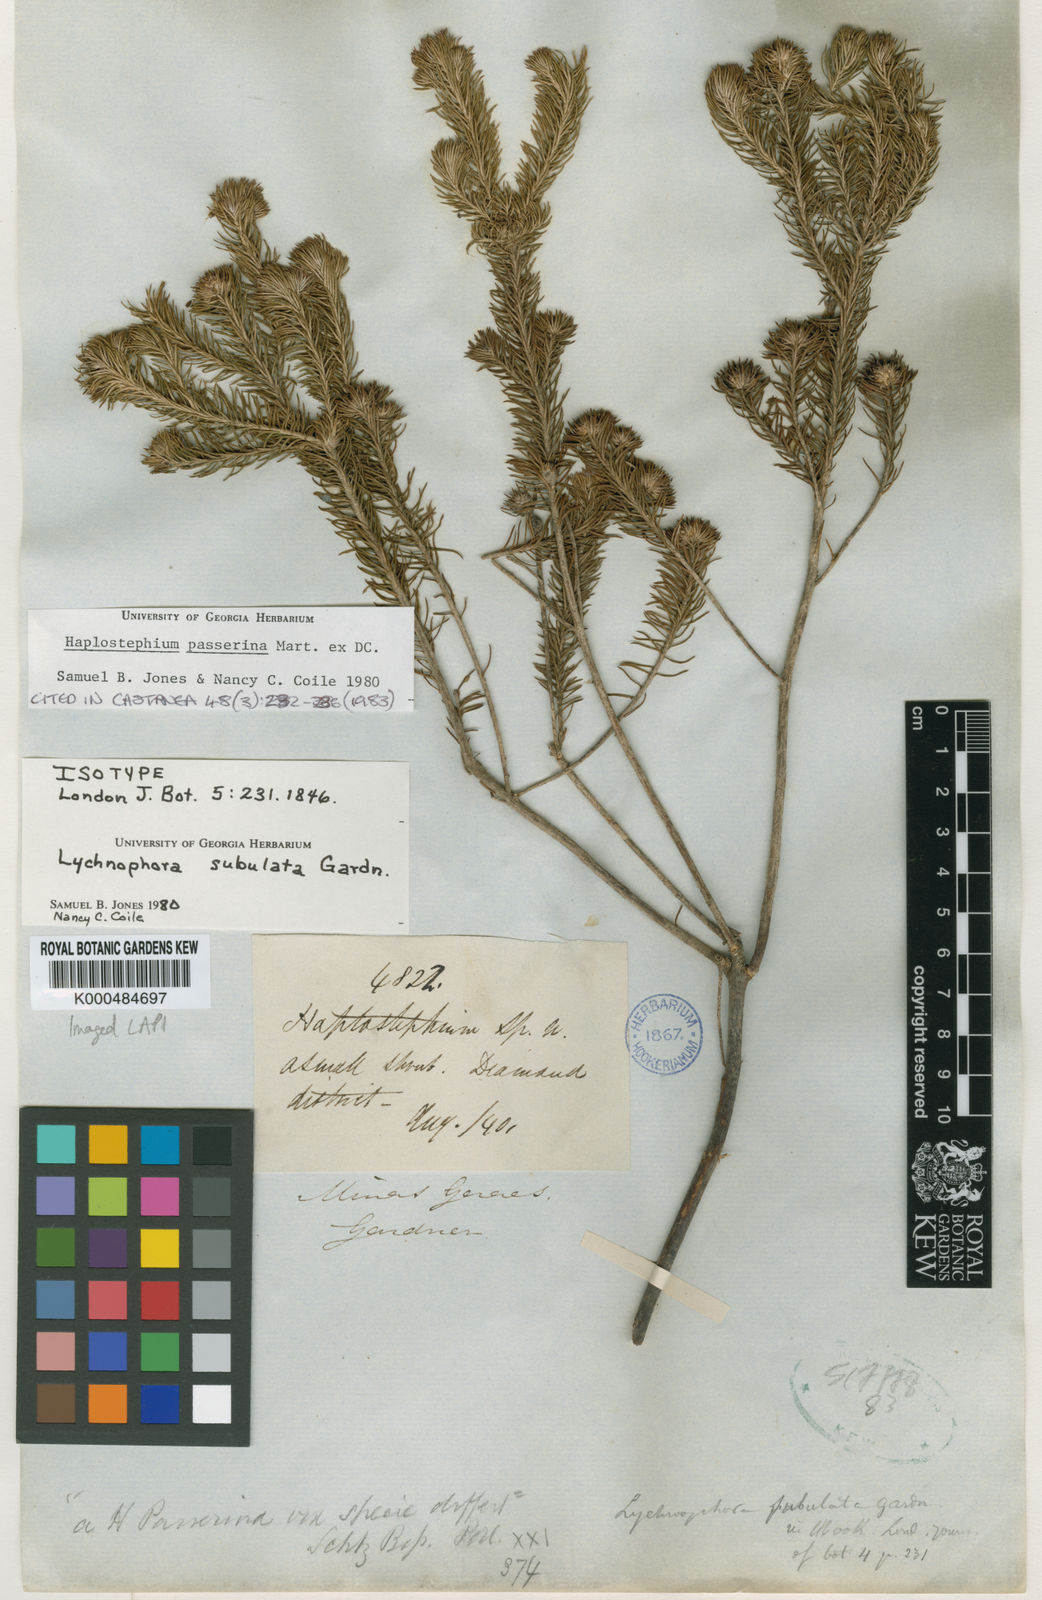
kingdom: Plantae
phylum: Tracheophyta
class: Magnoliopsida
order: Asterales
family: Asteraceae
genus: Lychnophora
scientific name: Lychnophora passerina
